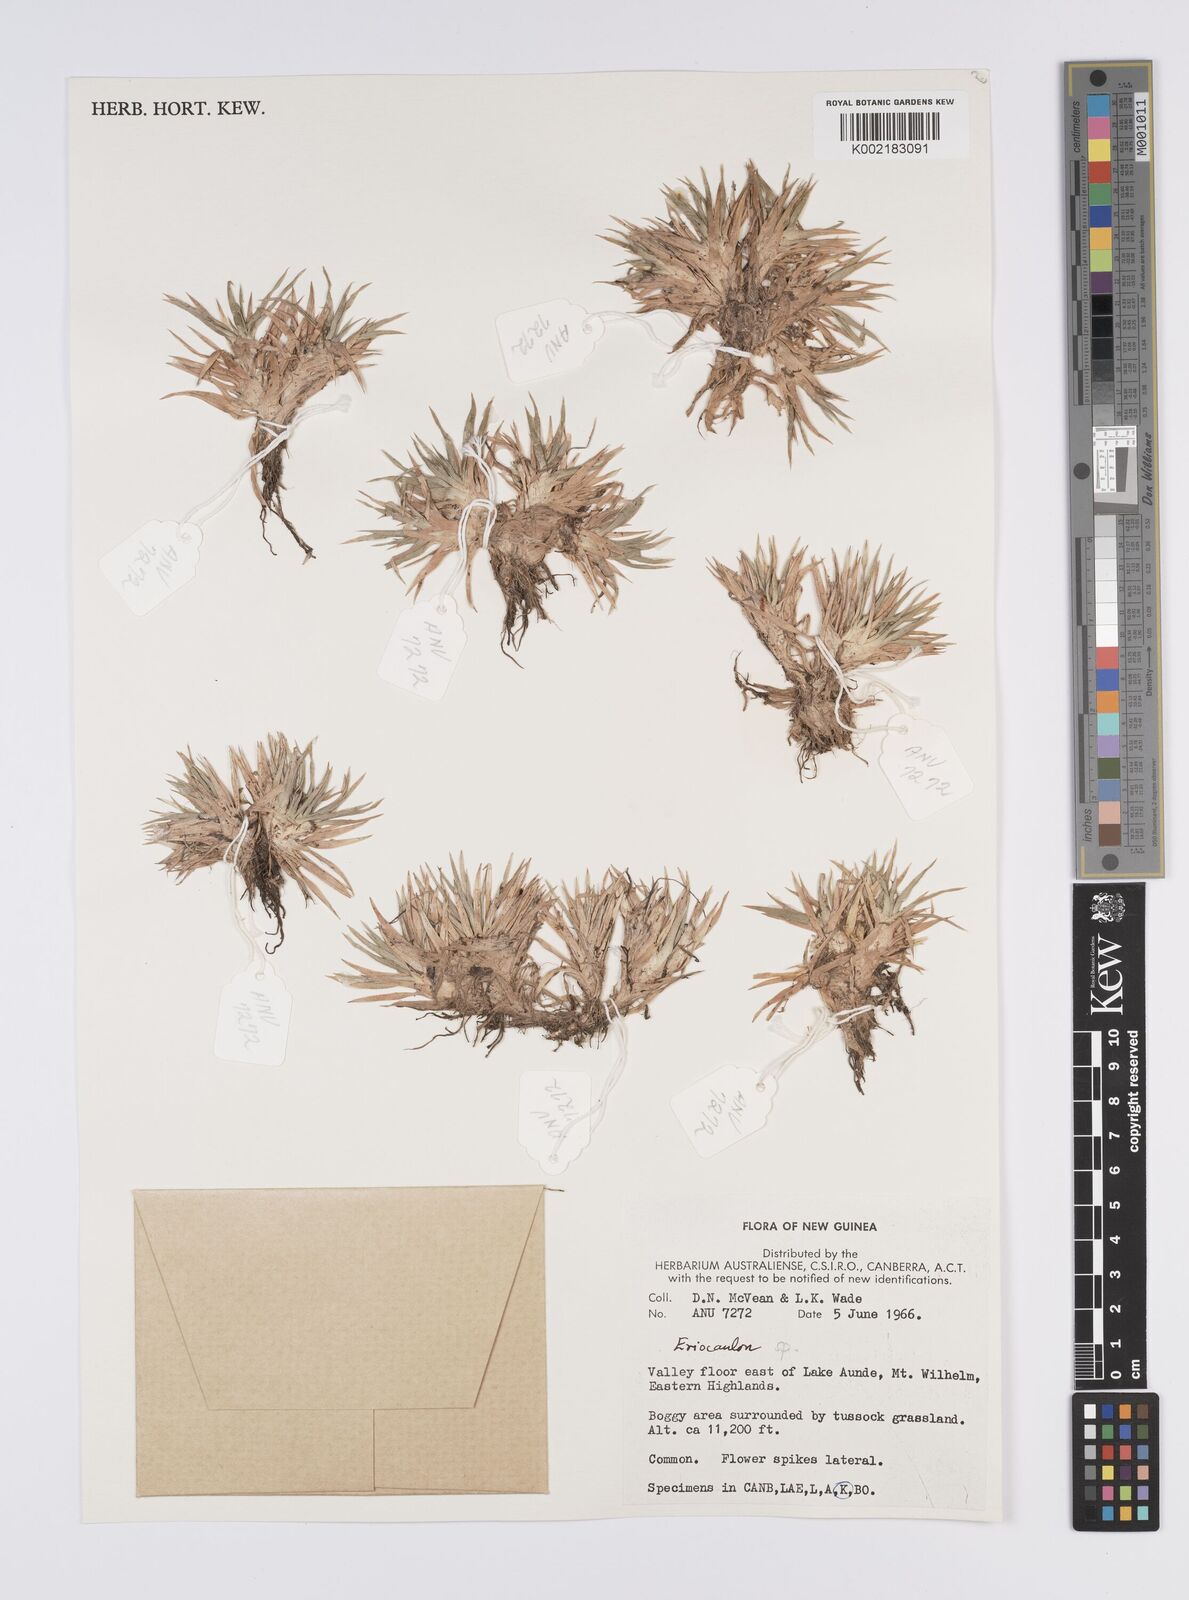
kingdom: Plantae
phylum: Tracheophyta
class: Liliopsida
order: Poales
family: Eriocaulaceae
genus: Eriocaulon
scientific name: Eriocaulon
